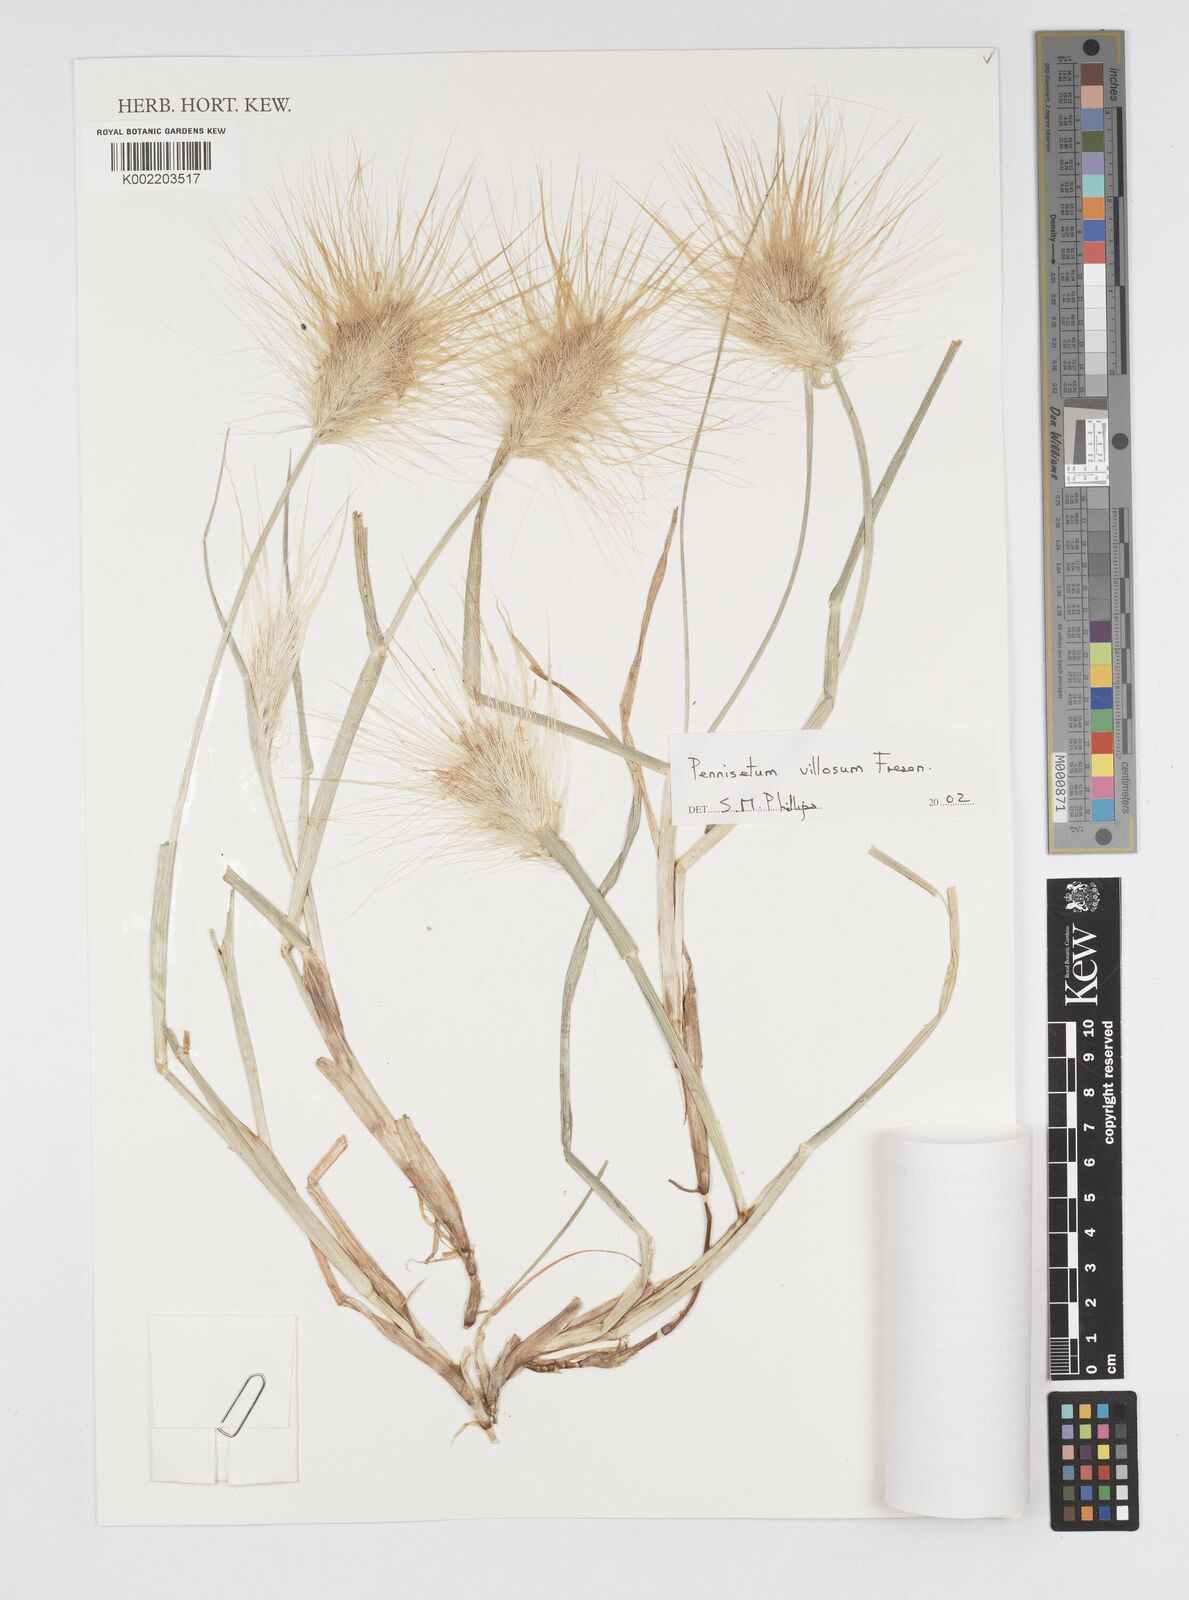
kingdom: Plantae
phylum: Tracheophyta
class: Liliopsida
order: Poales
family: Poaceae
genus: Cenchrus
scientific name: Cenchrus longisetus
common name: Feathertop
